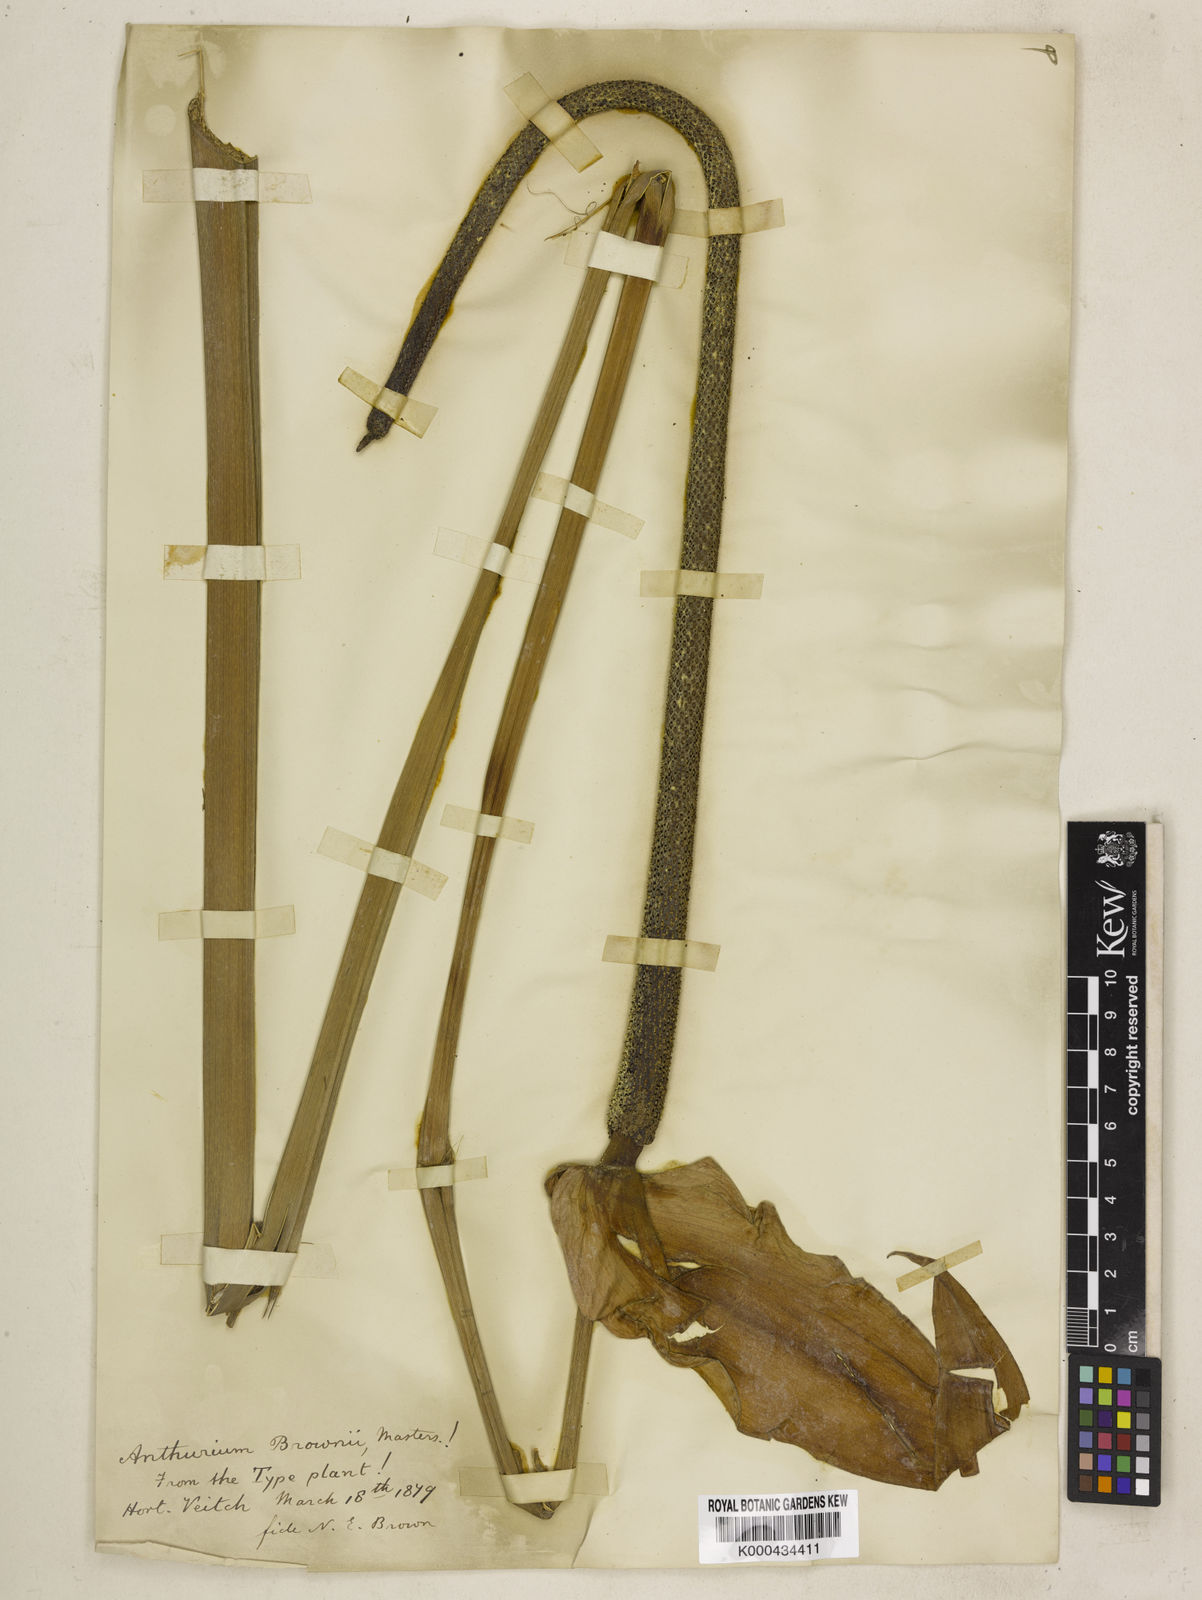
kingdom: Plantae
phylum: Tracheophyta
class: Liliopsida
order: Alismatales
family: Araceae
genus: Anthurium
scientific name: Anthurium brownii
